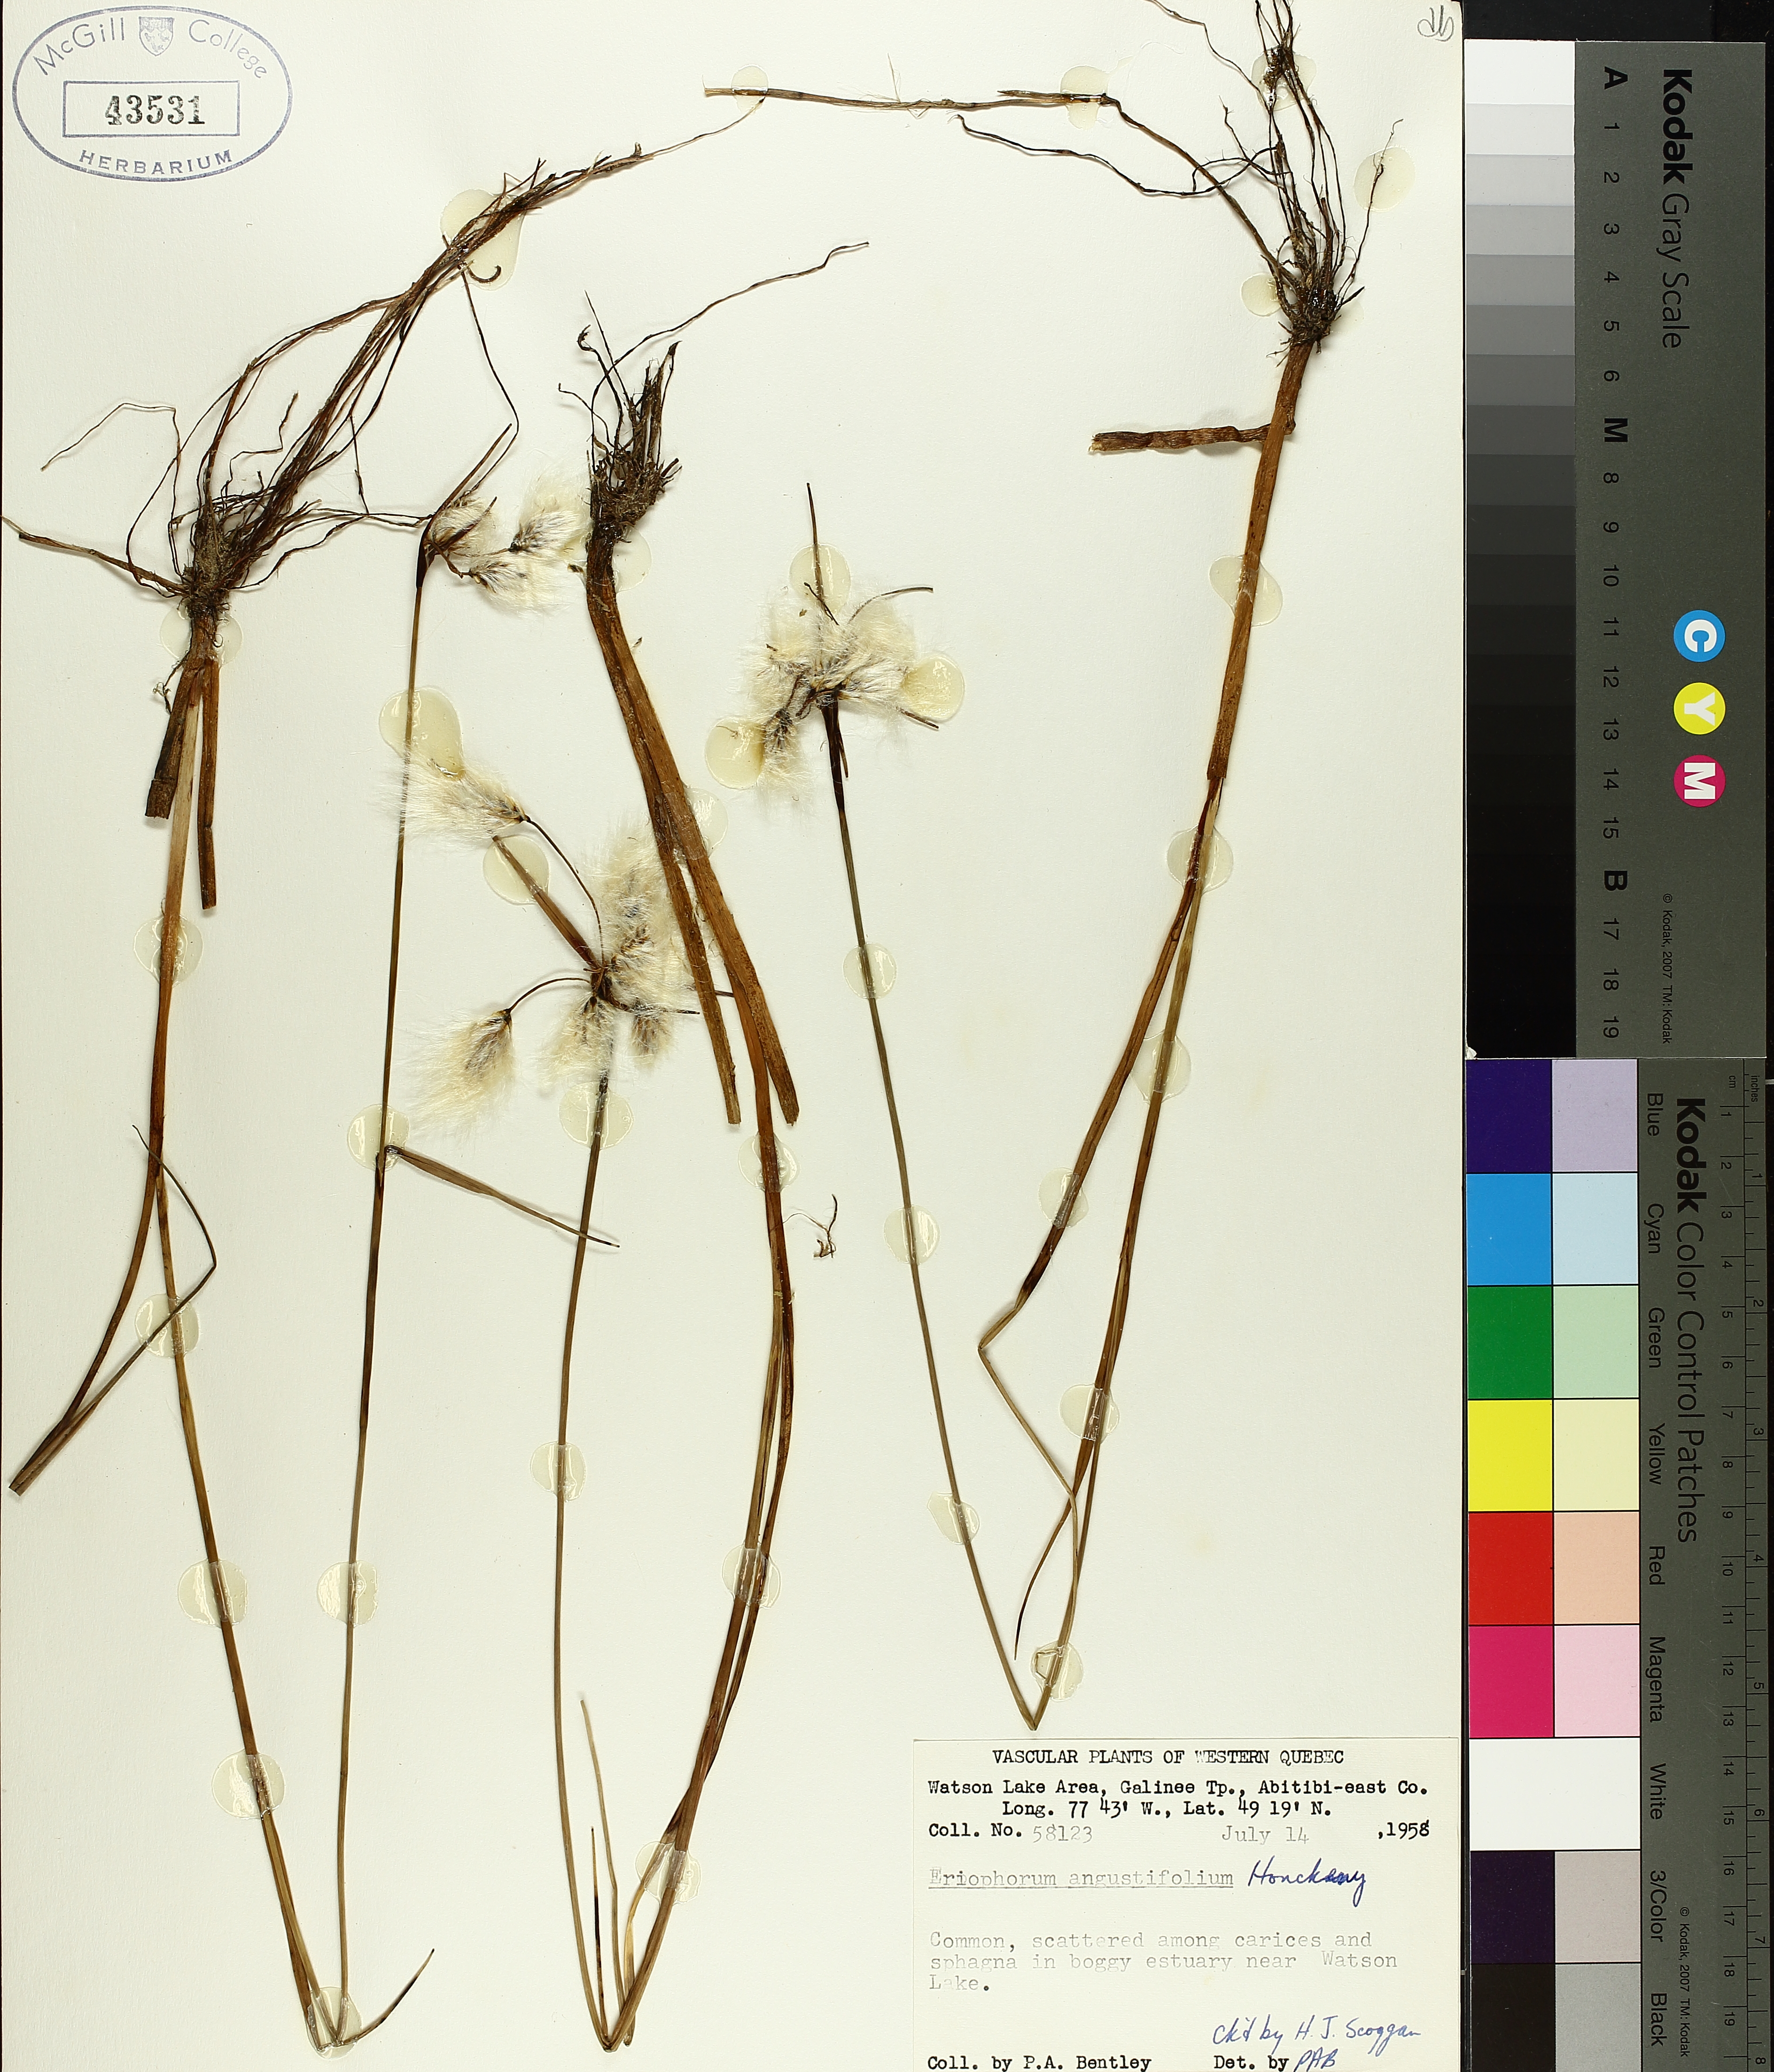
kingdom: Plantae
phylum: Tracheophyta
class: Liliopsida
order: Poales
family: Cyperaceae
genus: Eriophorum
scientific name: Eriophorum triste
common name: Tall cottongrass
